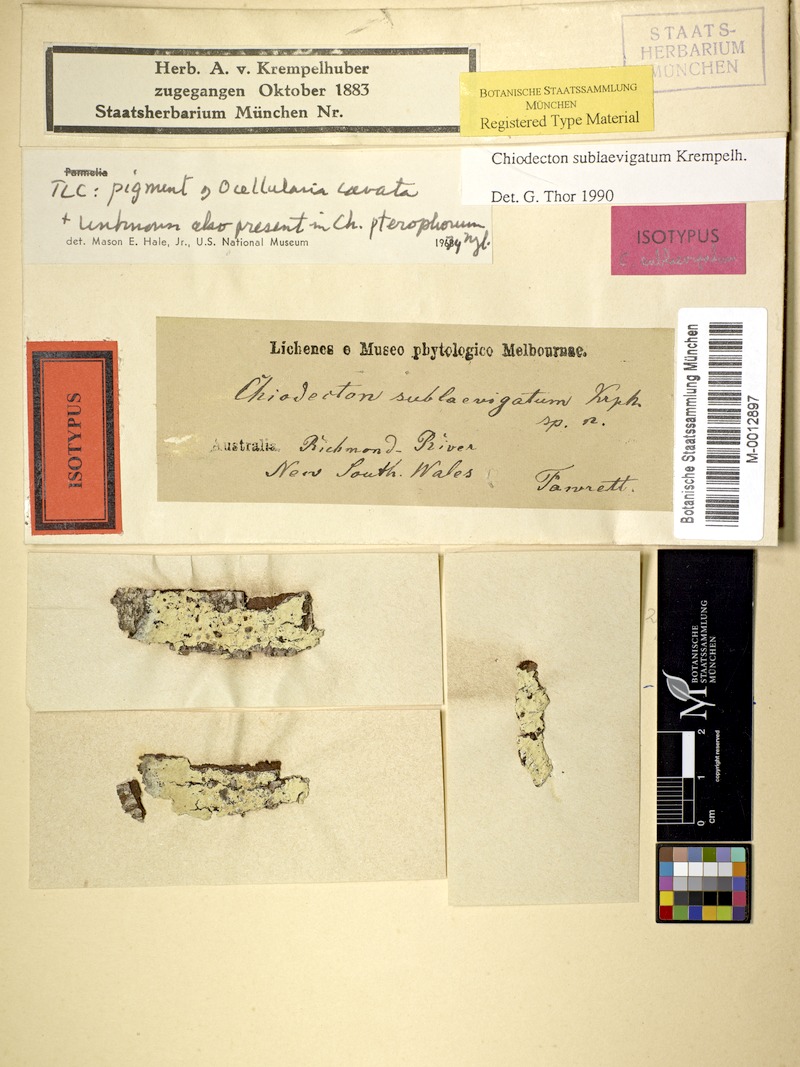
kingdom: Fungi
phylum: Ascomycota
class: Arthoniomycetes
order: Arthoniales
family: Roccellaceae
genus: Chiodecton
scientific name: Chiodecton sublaevigatum
